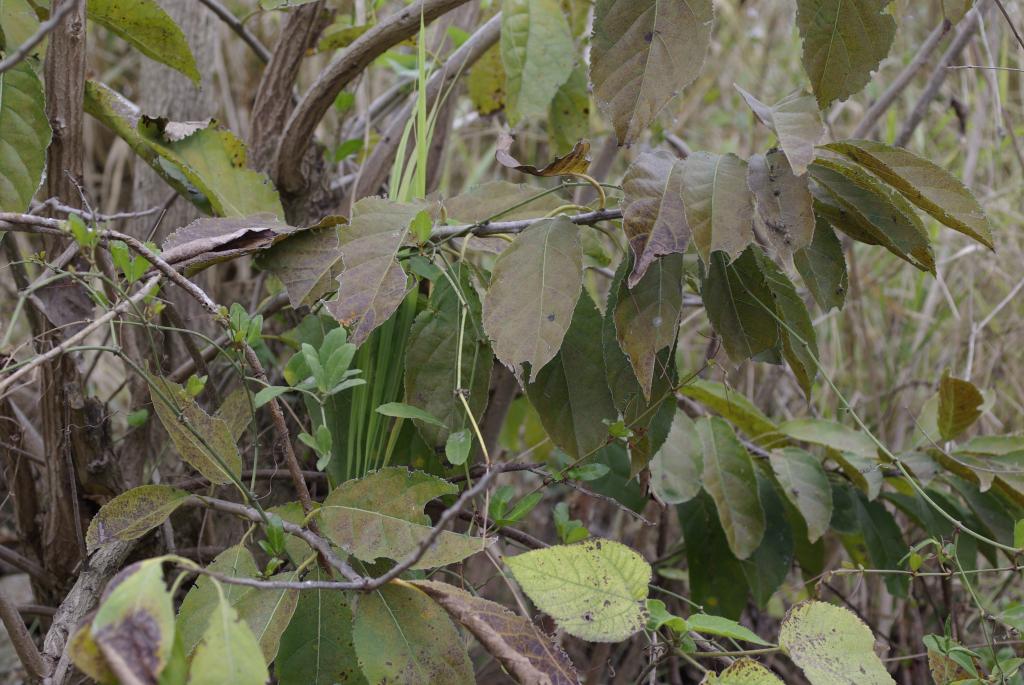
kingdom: Plantae
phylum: Tracheophyta
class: Magnoliopsida
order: Boraginales
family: Ehretiaceae
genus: Ehretia
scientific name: Ehretia acuminata
